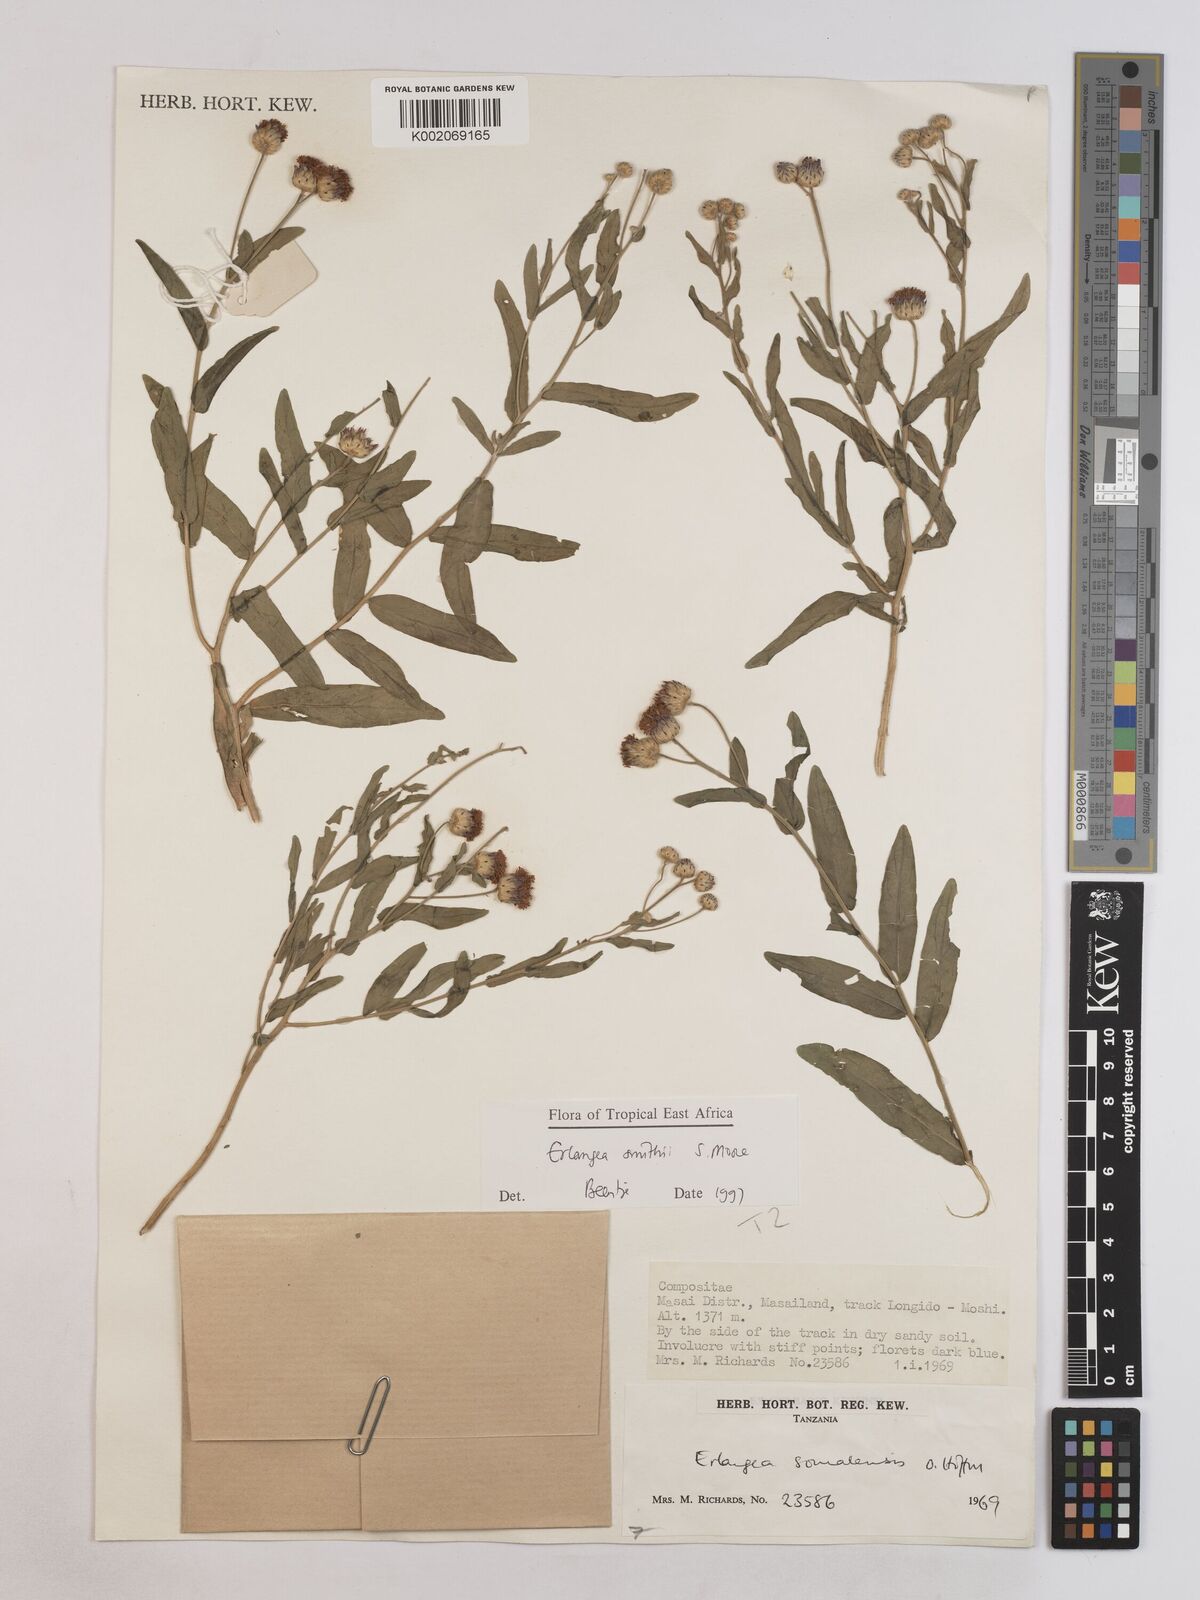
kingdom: Plantae
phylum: Tracheophyta
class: Magnoliopsida
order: Asterales
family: Asteraceae
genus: Erlangea
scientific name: Erlangea smithii
